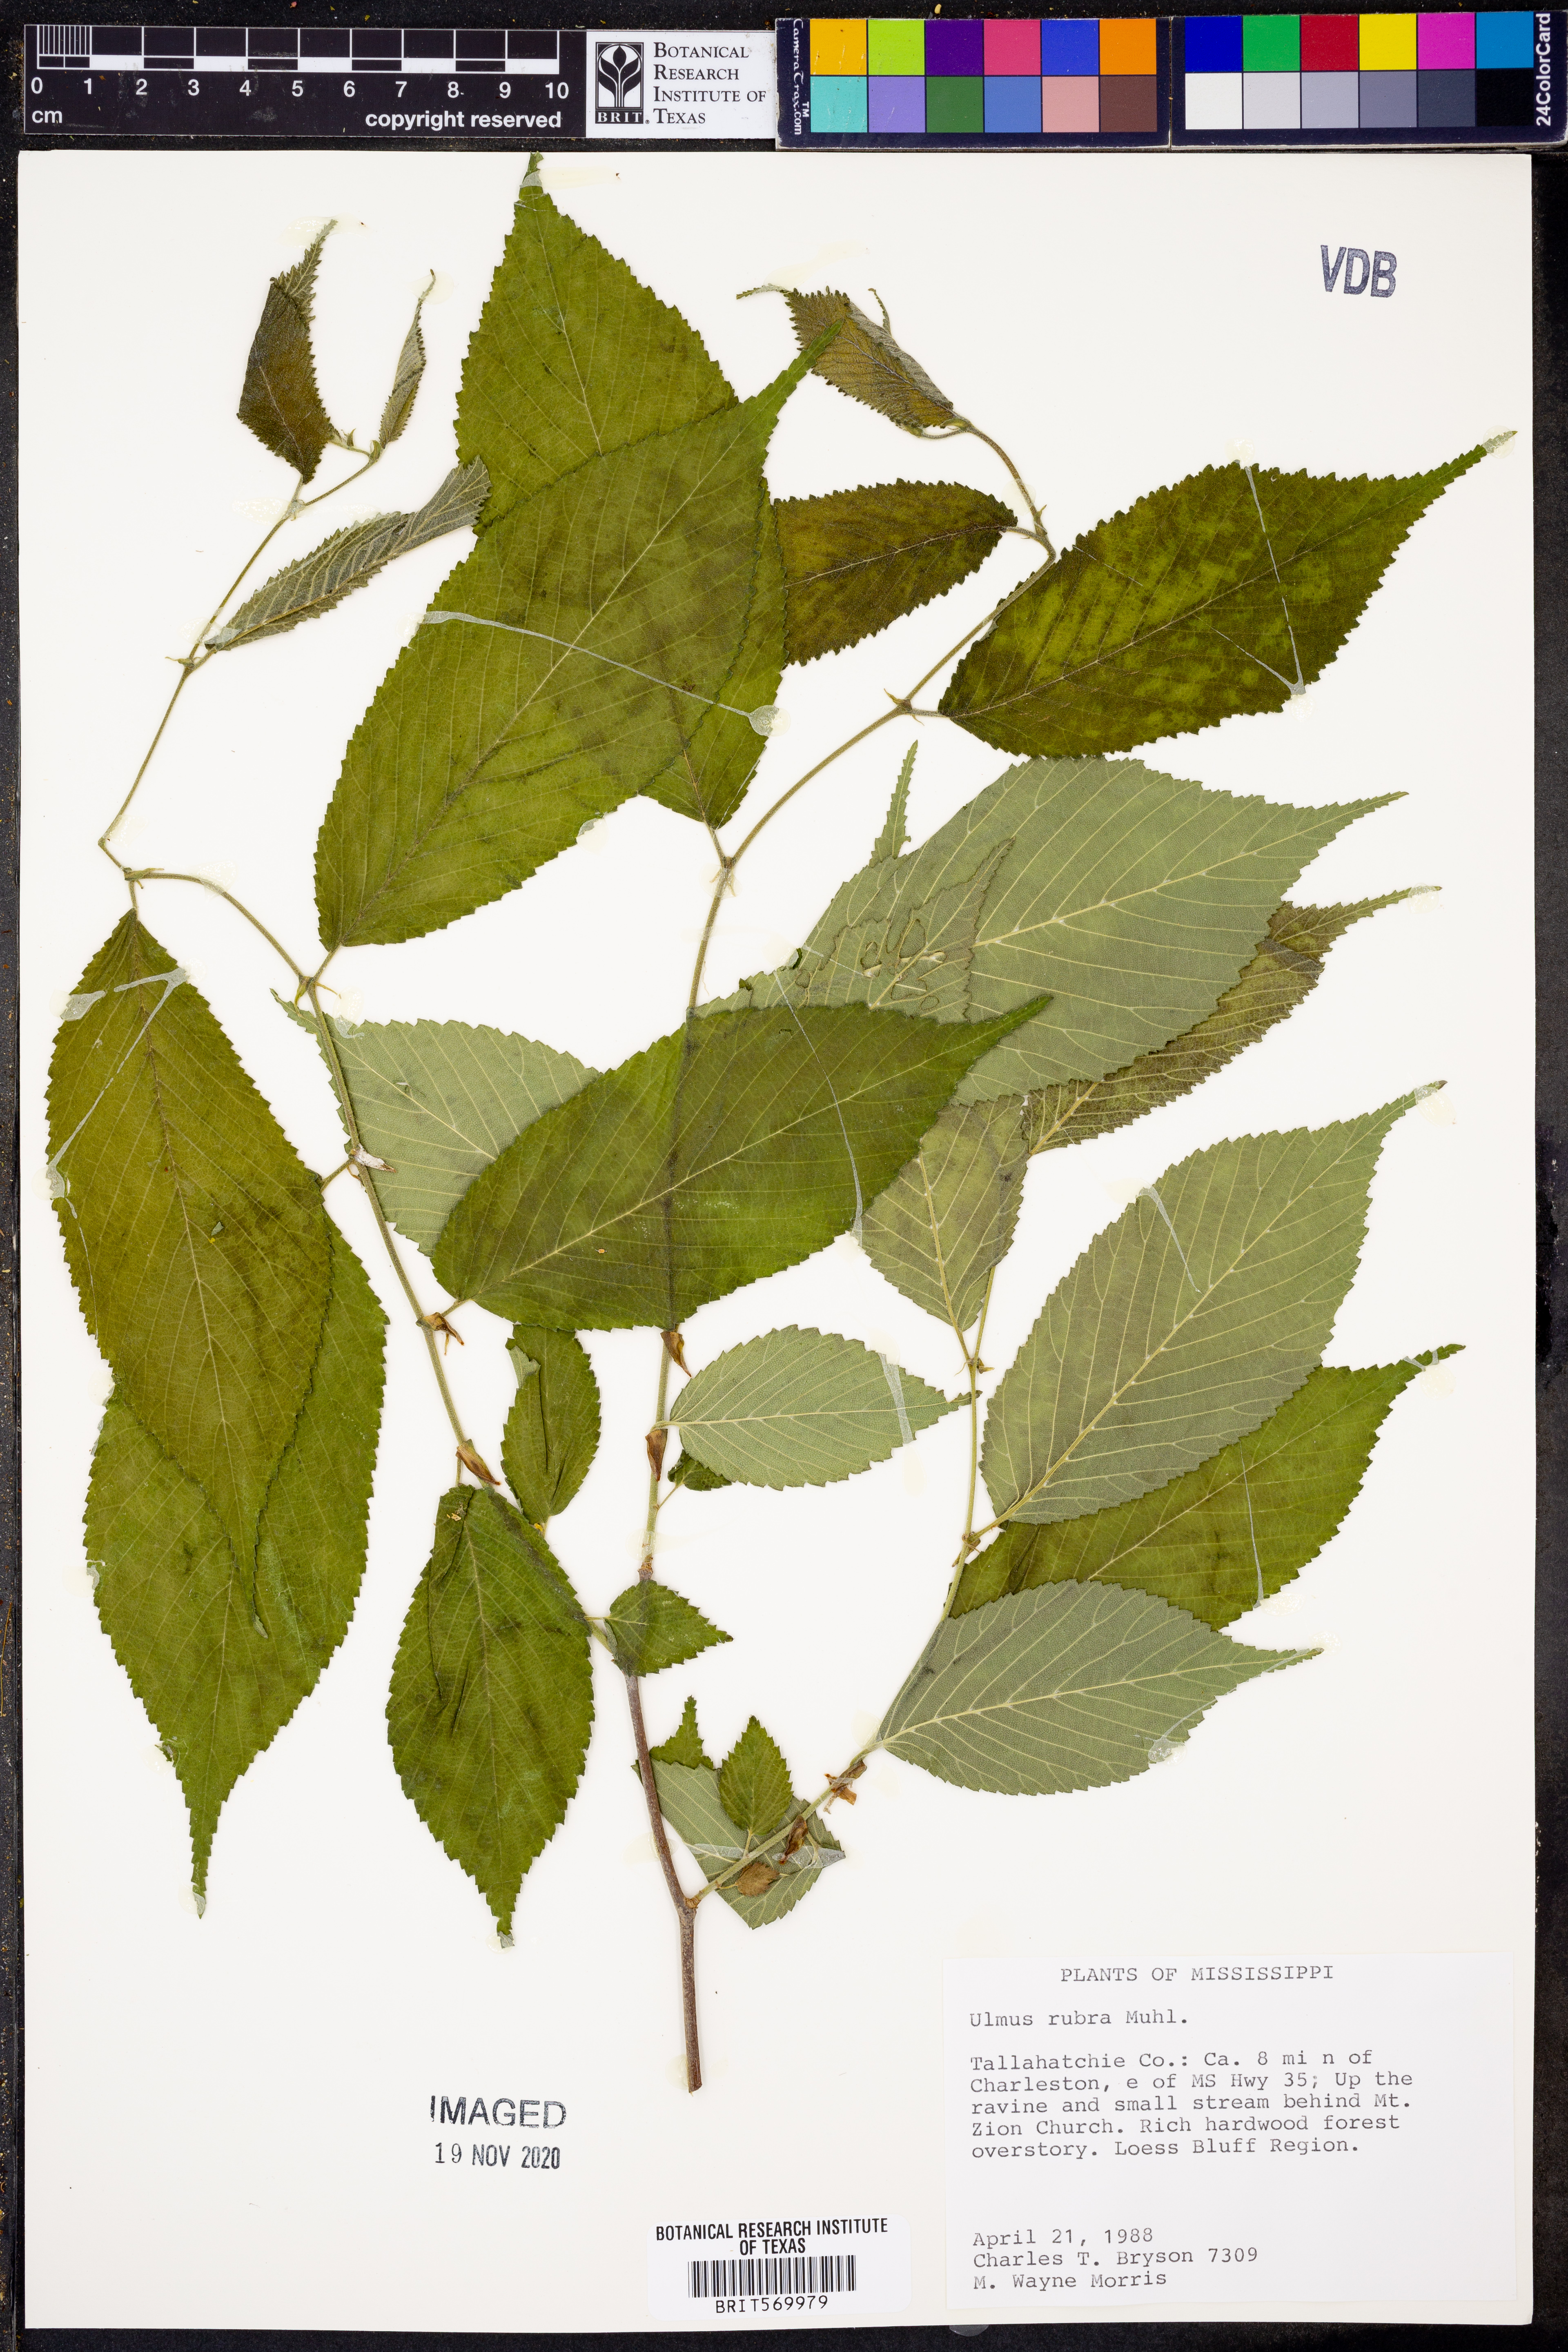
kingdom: Plantae
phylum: Tracheophyta
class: Magnoliopsida
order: Rosales
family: Ulmaceae
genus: Ulmus
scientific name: Ulmus rubra
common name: Slippery elm
